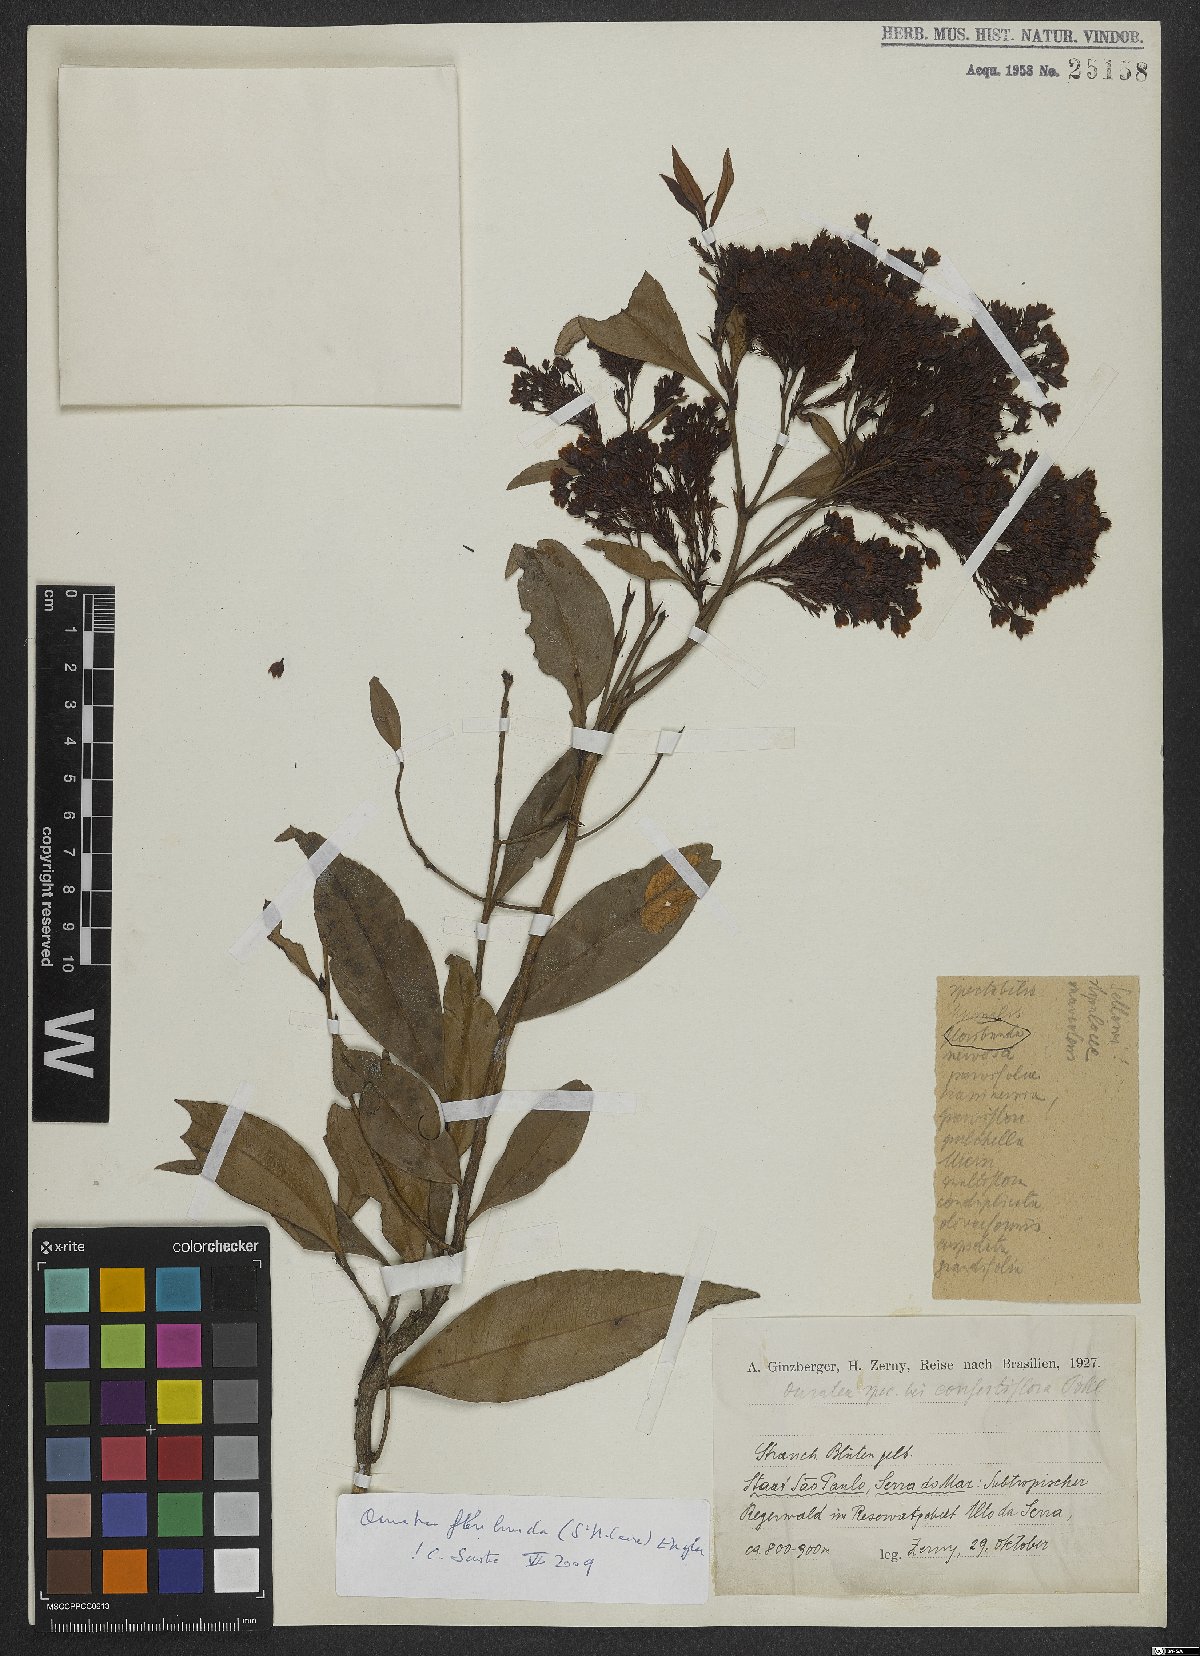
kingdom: Plantae
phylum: Tracheophyta
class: Magnoliopsida
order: Malpighiales
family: Hypericaceae
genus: Vismia
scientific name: Vismia gracilis
